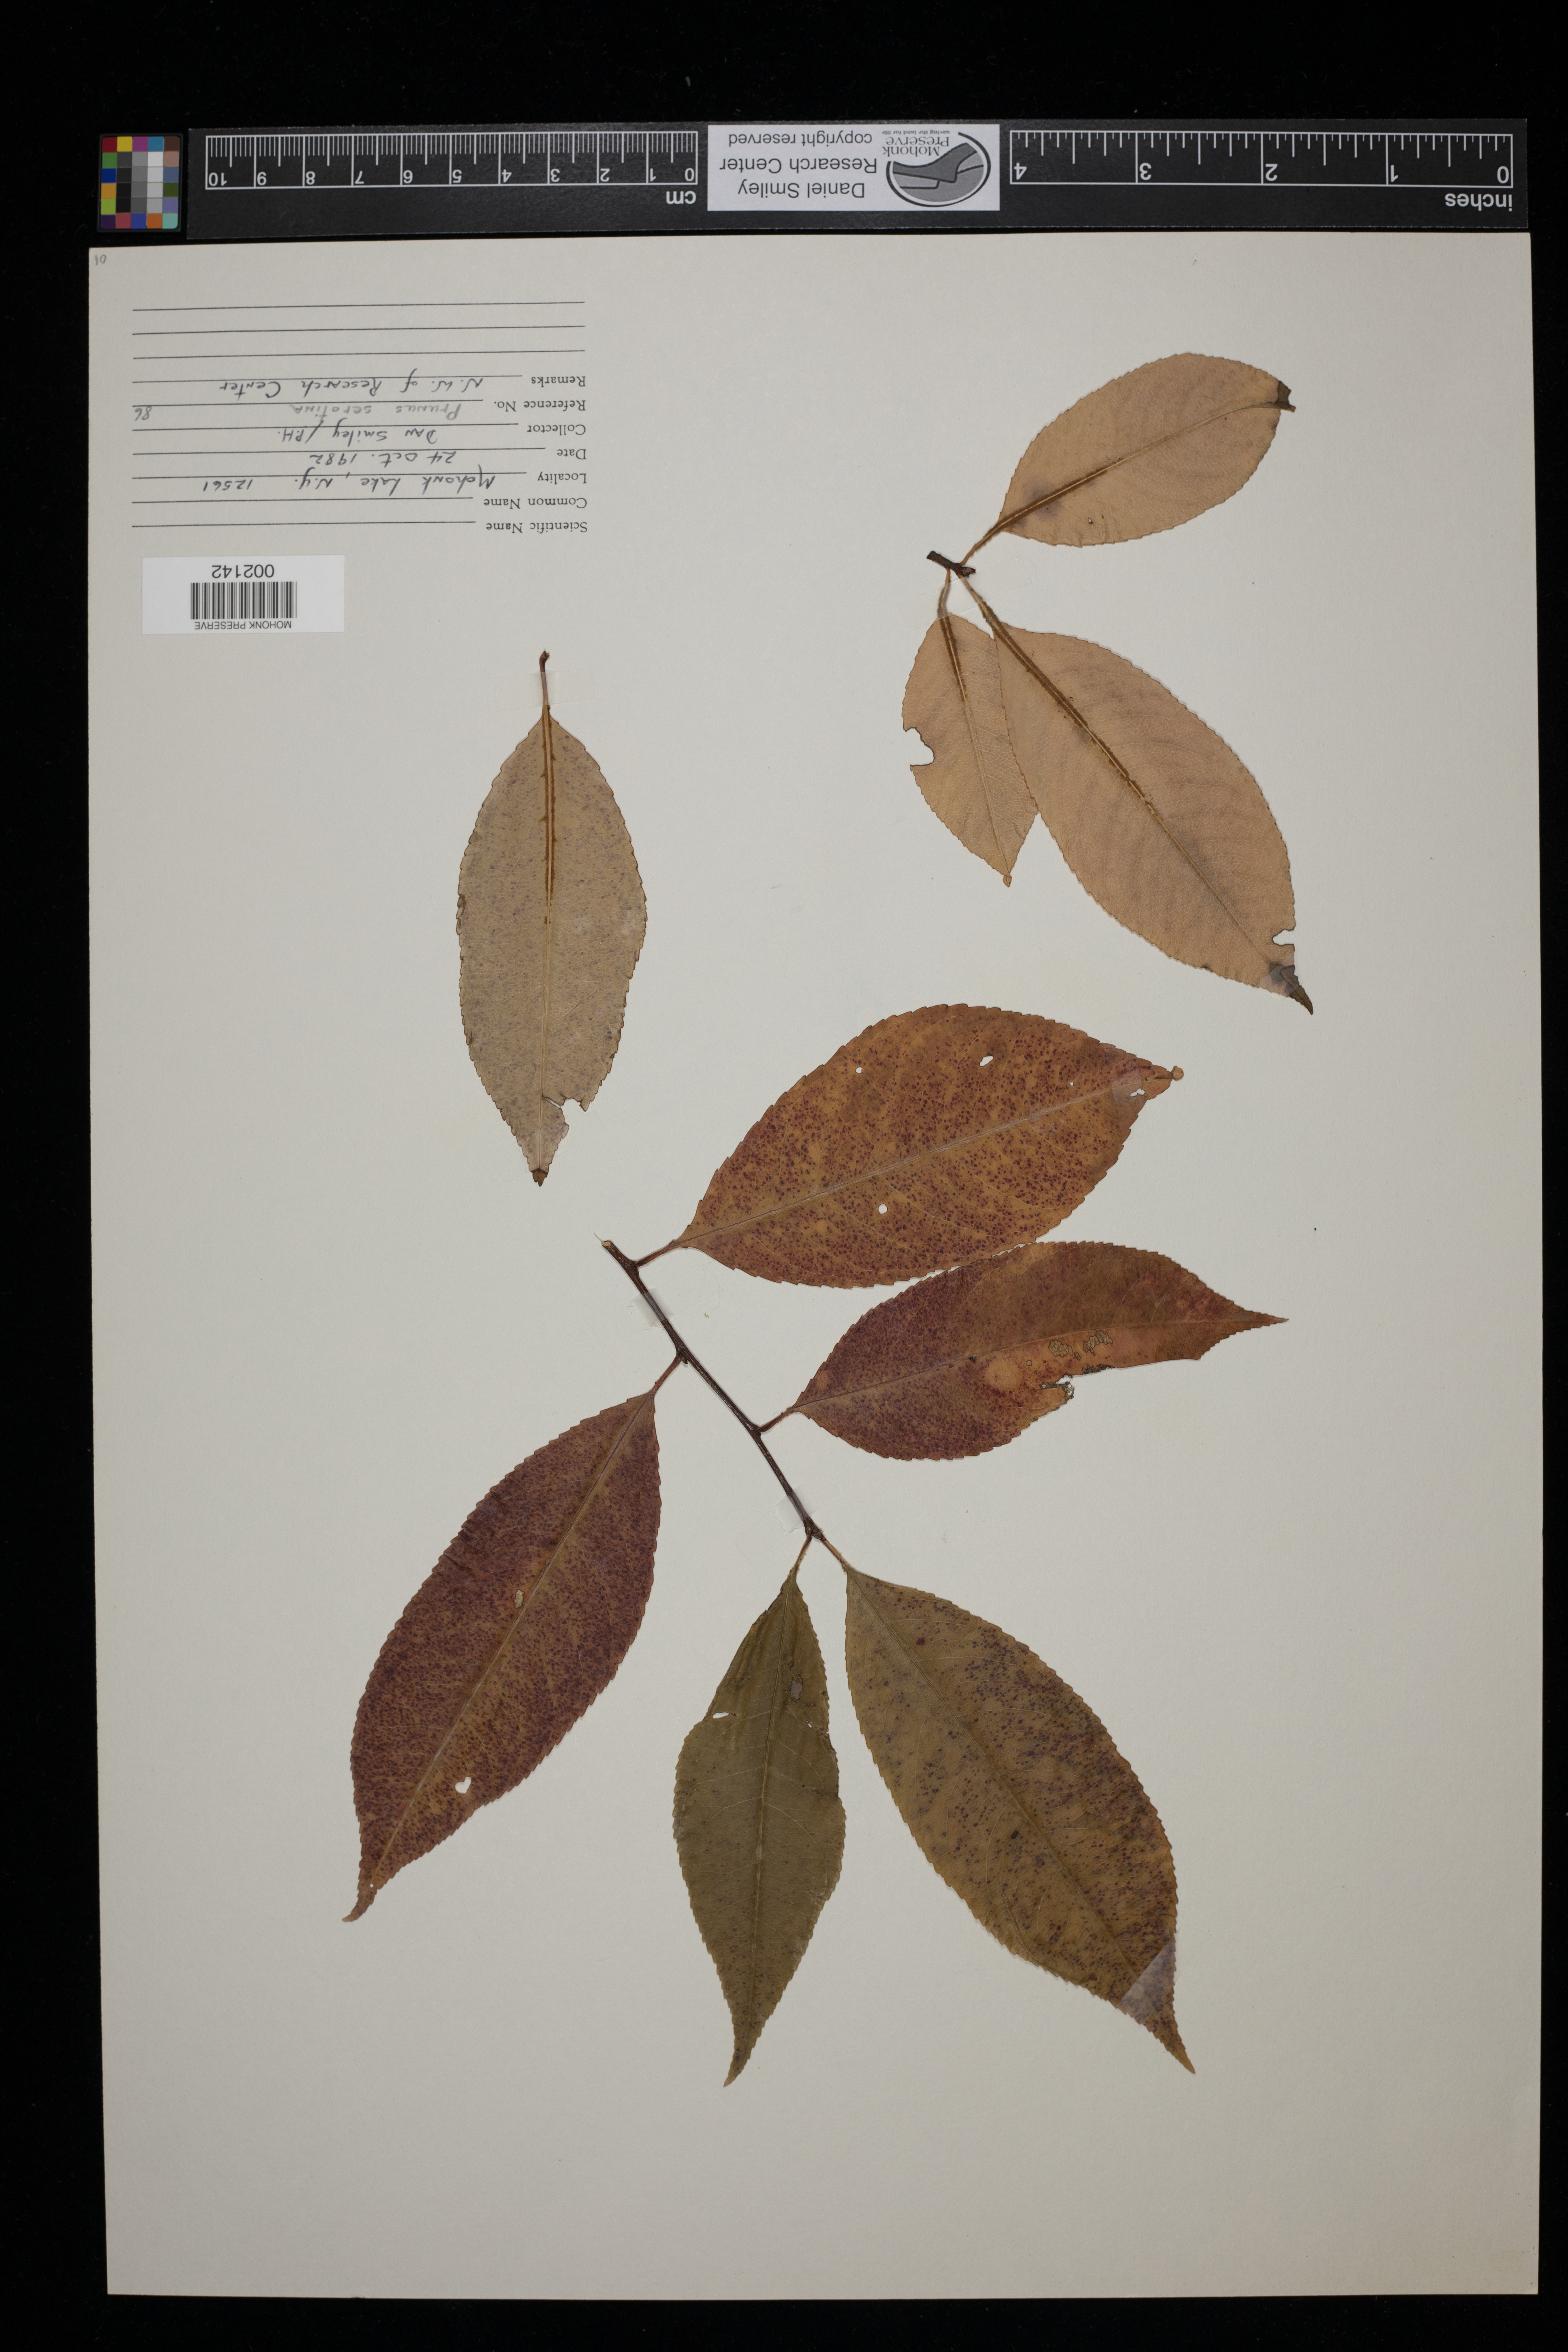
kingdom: Plantae
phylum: Tracheophyta
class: Magnoliopsida
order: Rosales
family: Rosaceae
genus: Prunus
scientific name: Prunus serotina
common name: Black cherry
